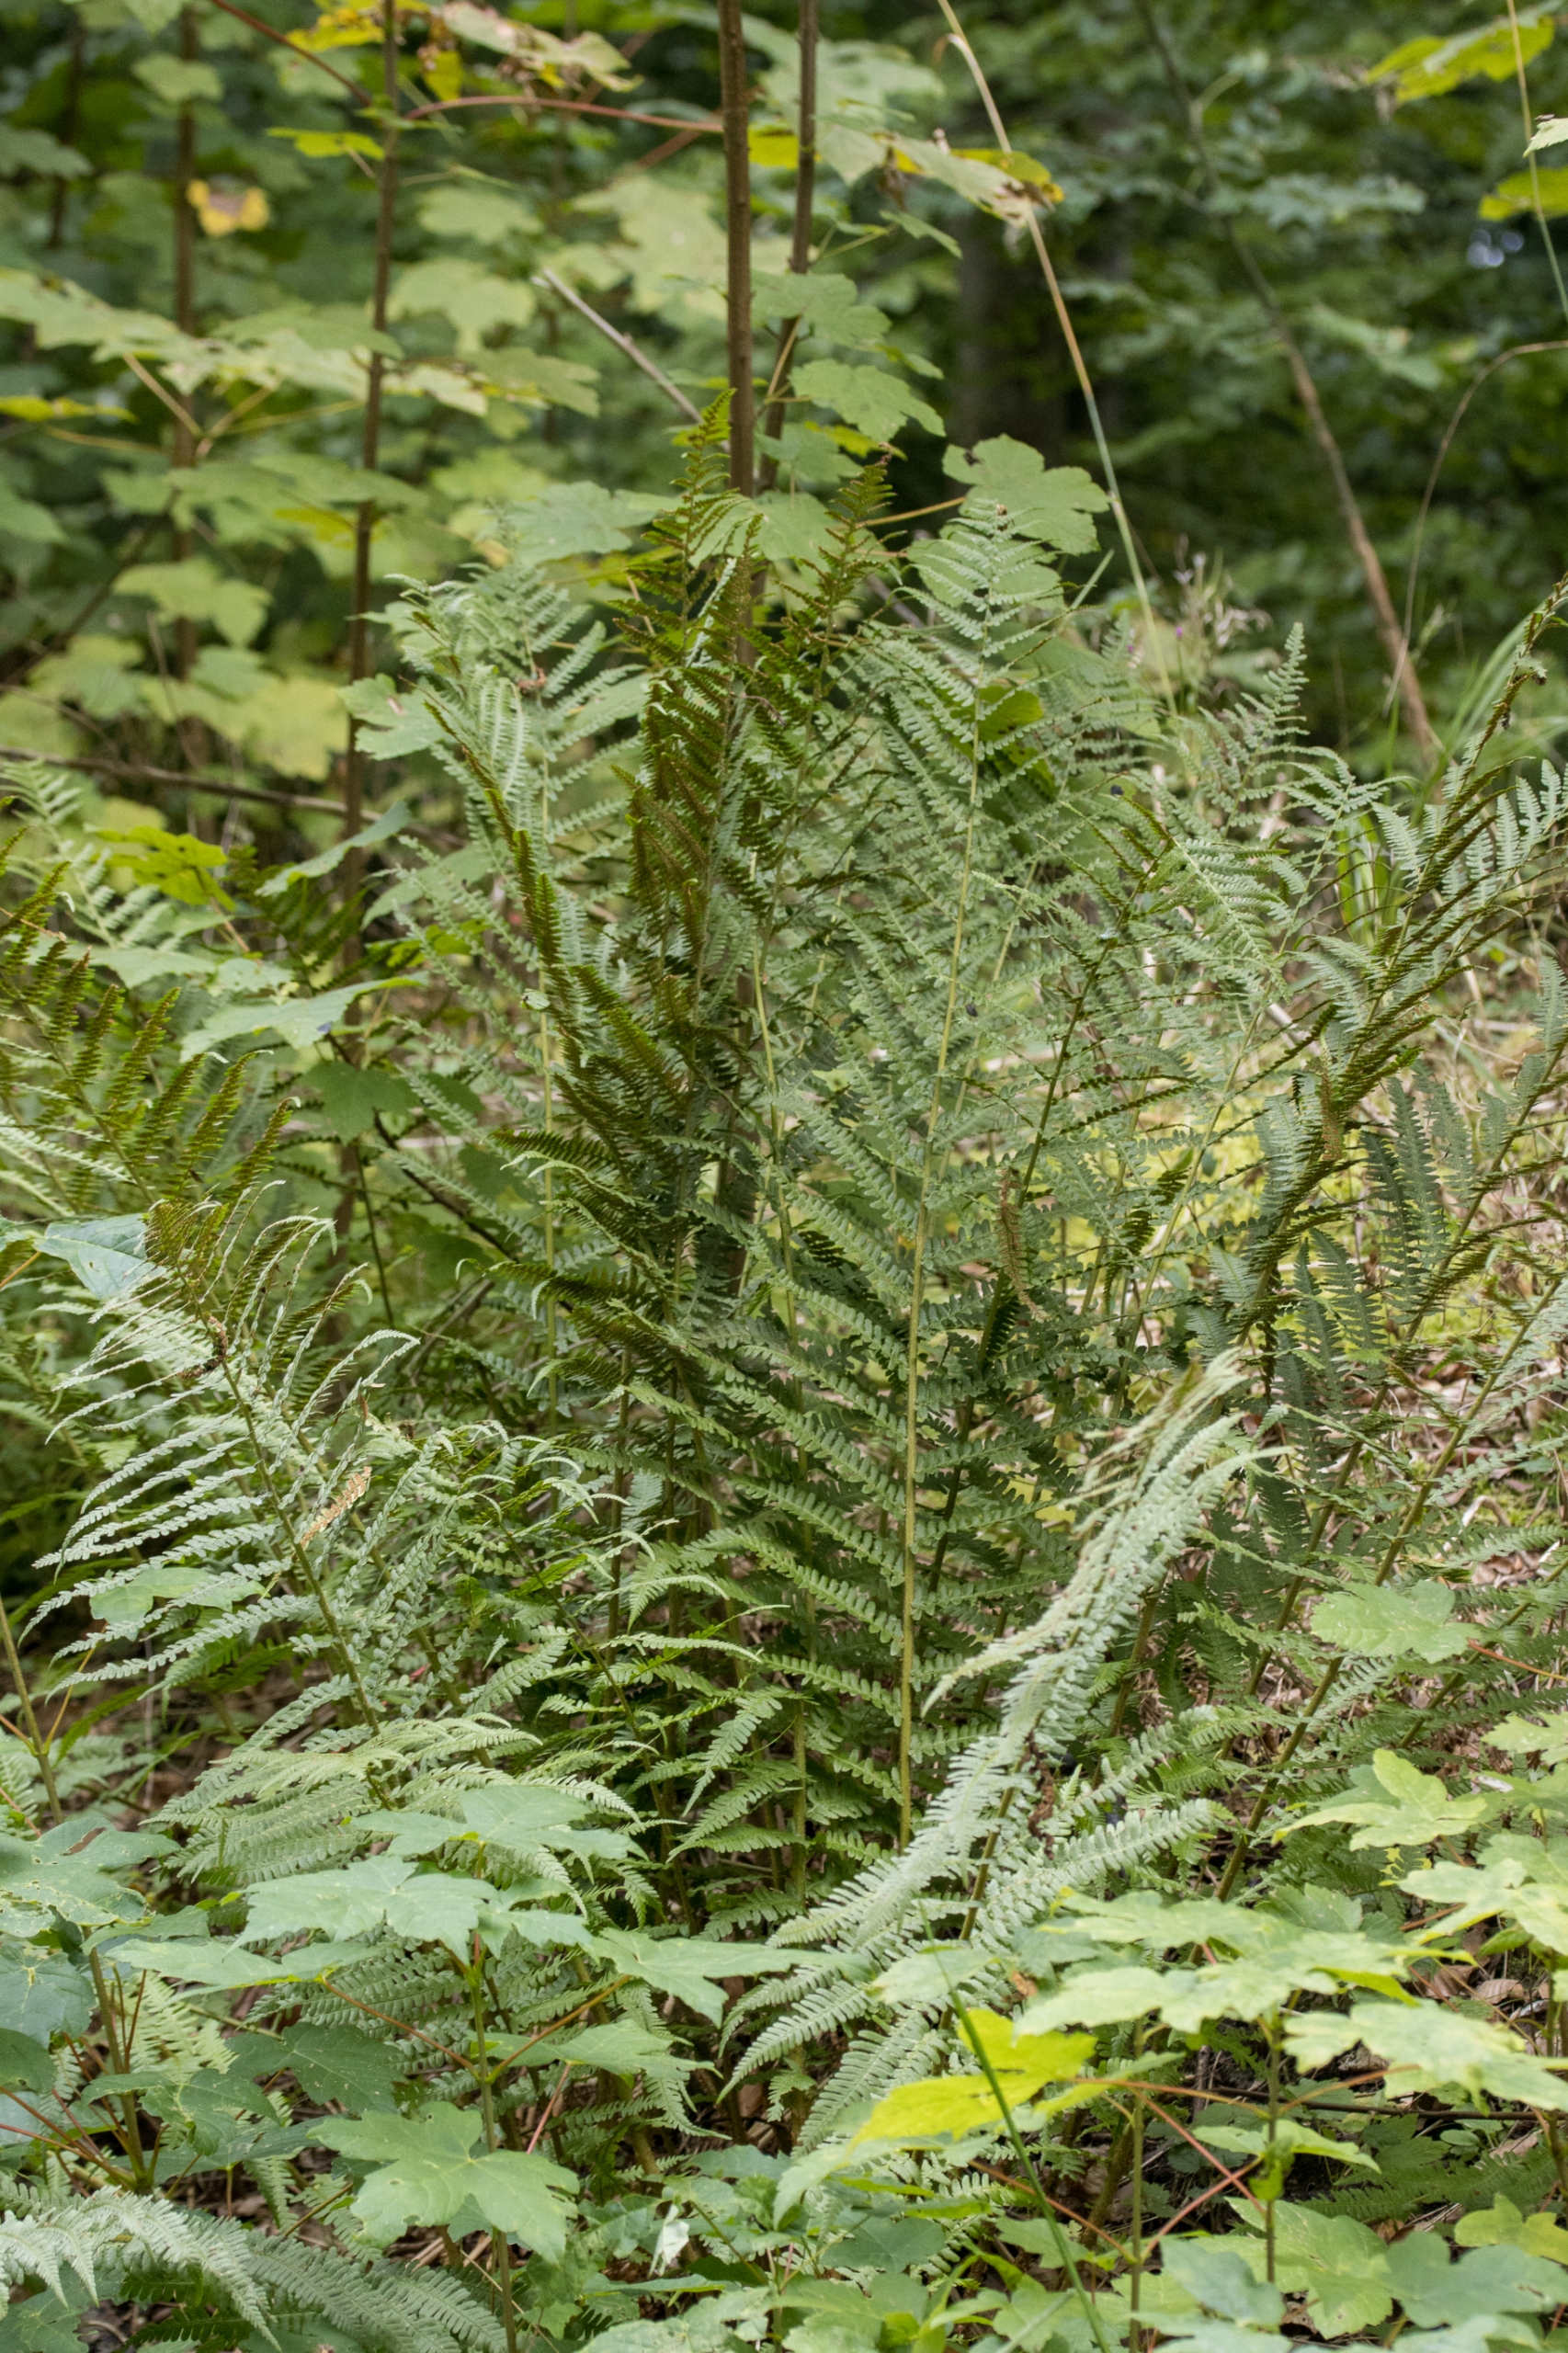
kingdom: Plantae
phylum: Tracheophyta
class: Polypodiopsida
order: Polypodiales
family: Dryopteridaceae
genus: Dryopteris
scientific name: Dryopteris carthusiana
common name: Smalbladet mangeløv
